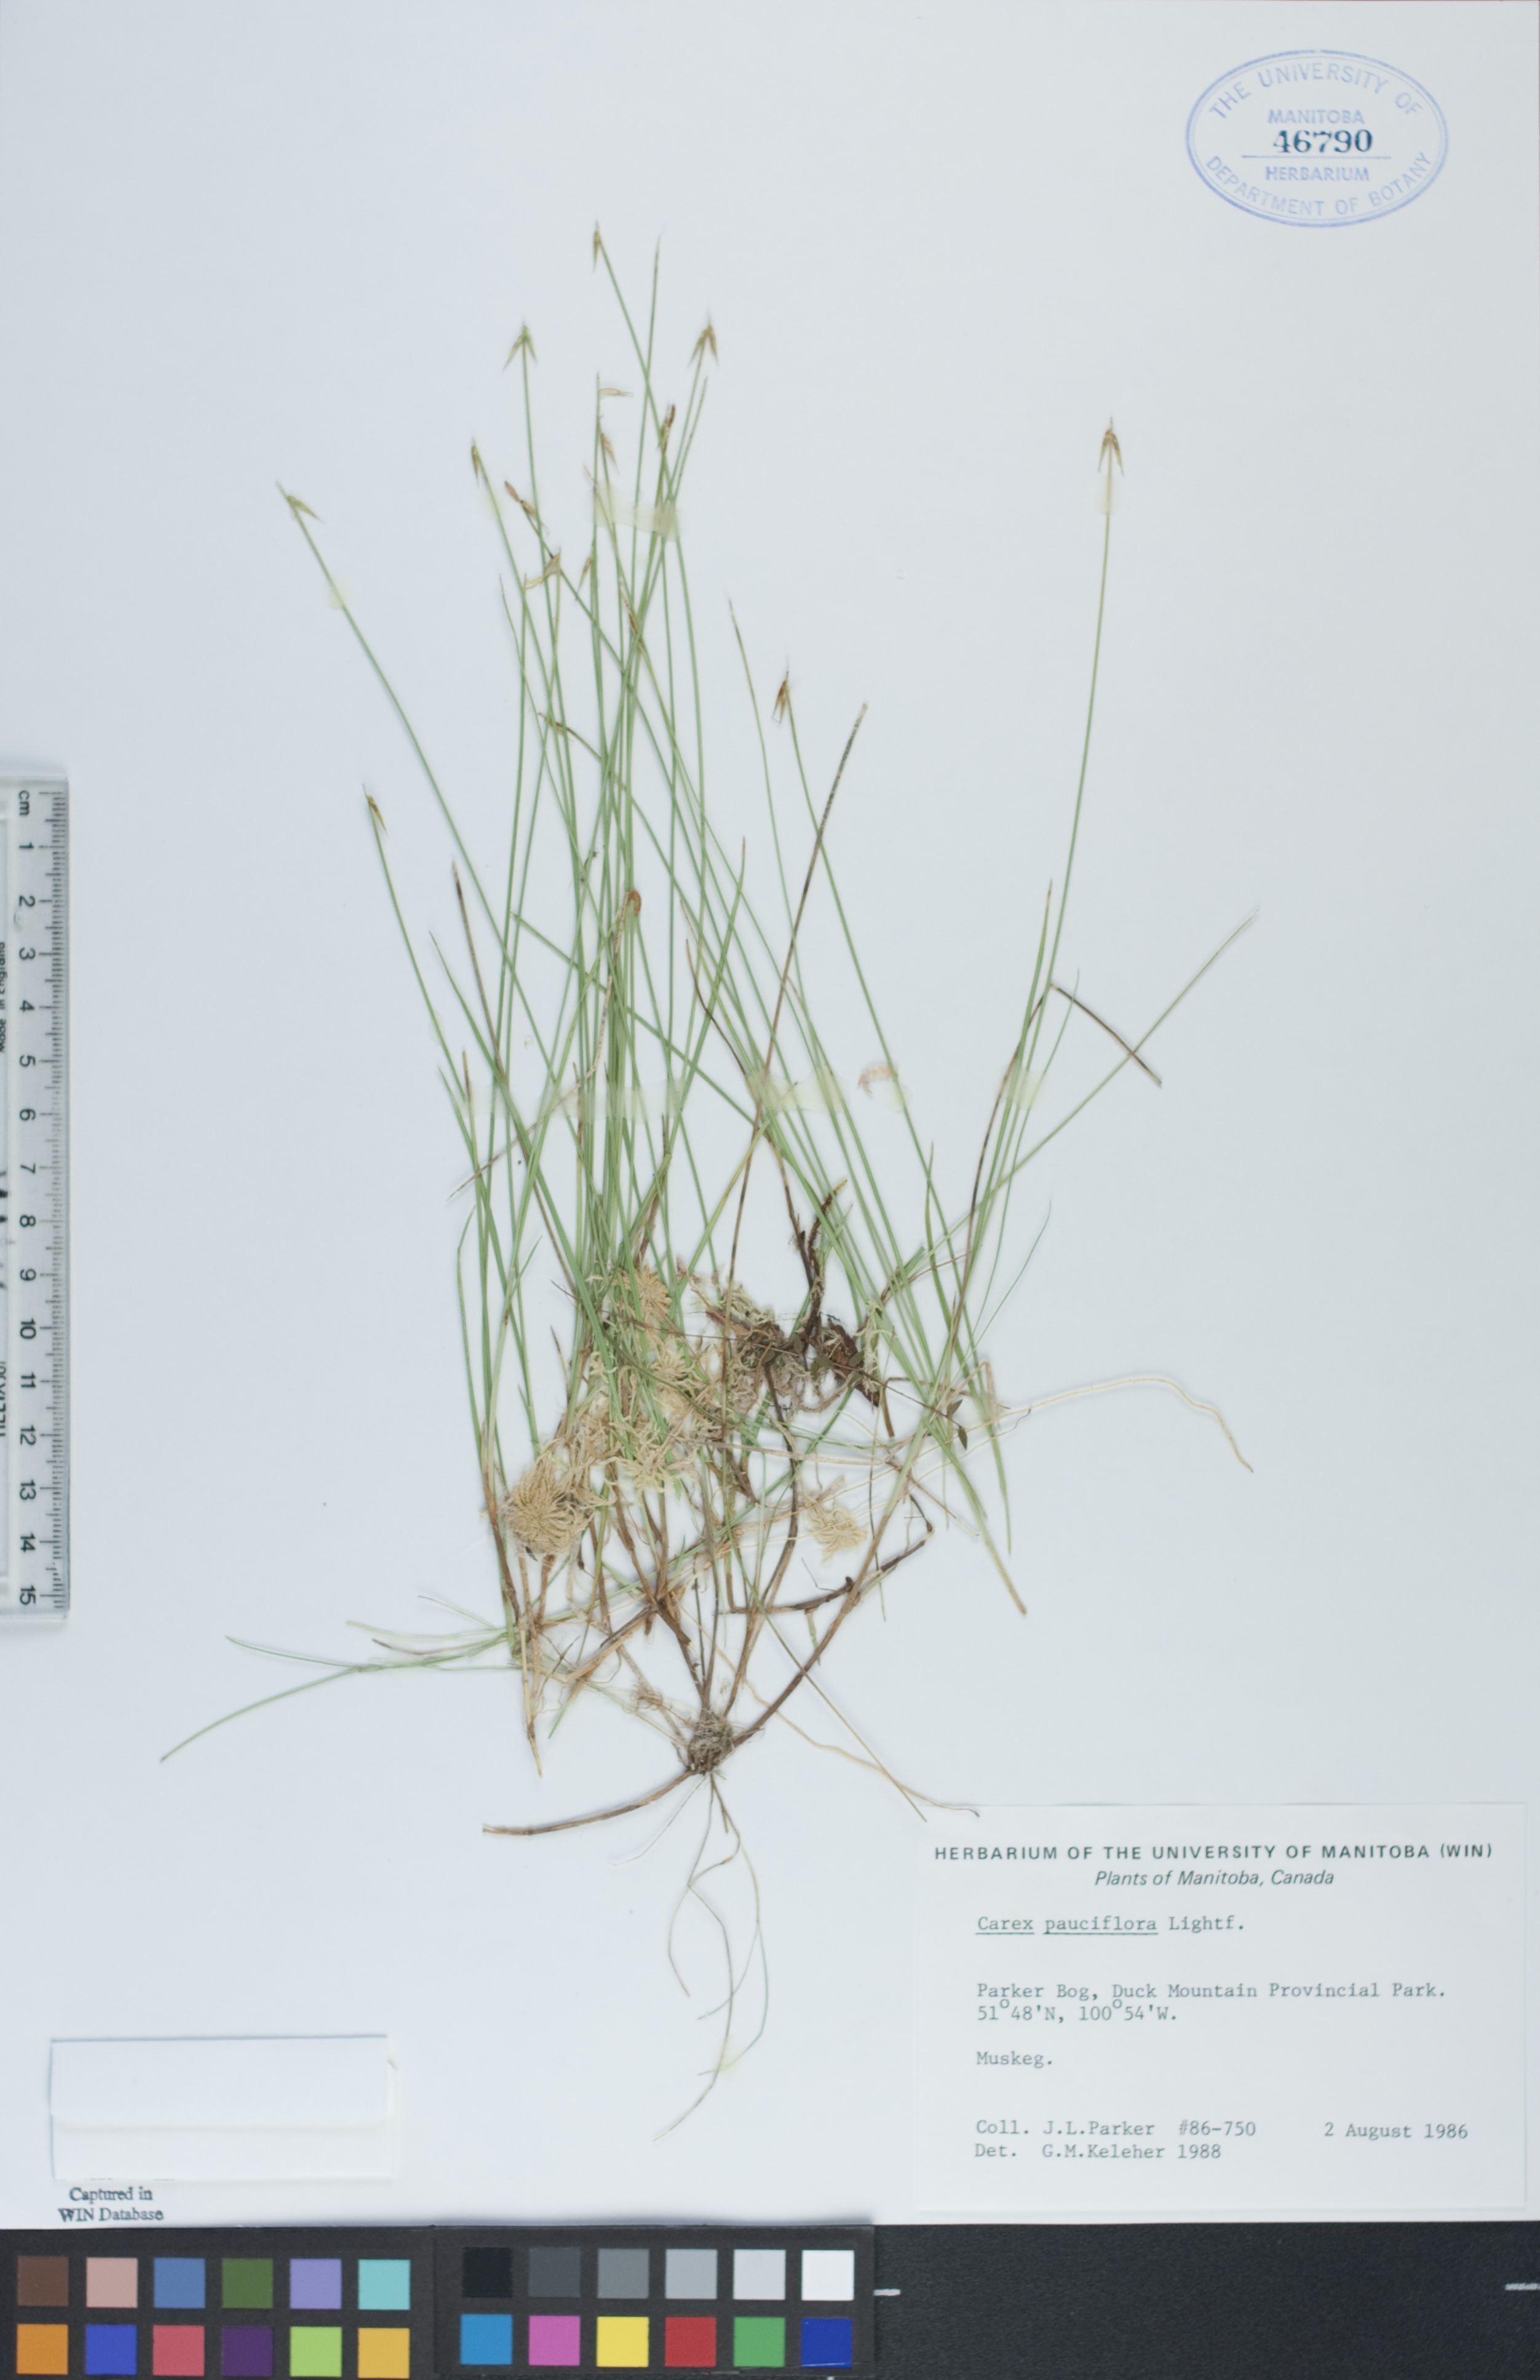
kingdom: Plantae
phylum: Tracheophyta
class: Liliopsida
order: Poales
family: Cyperaceae
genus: Carex
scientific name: Carex pauciflora
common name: Few-flowered sedge
